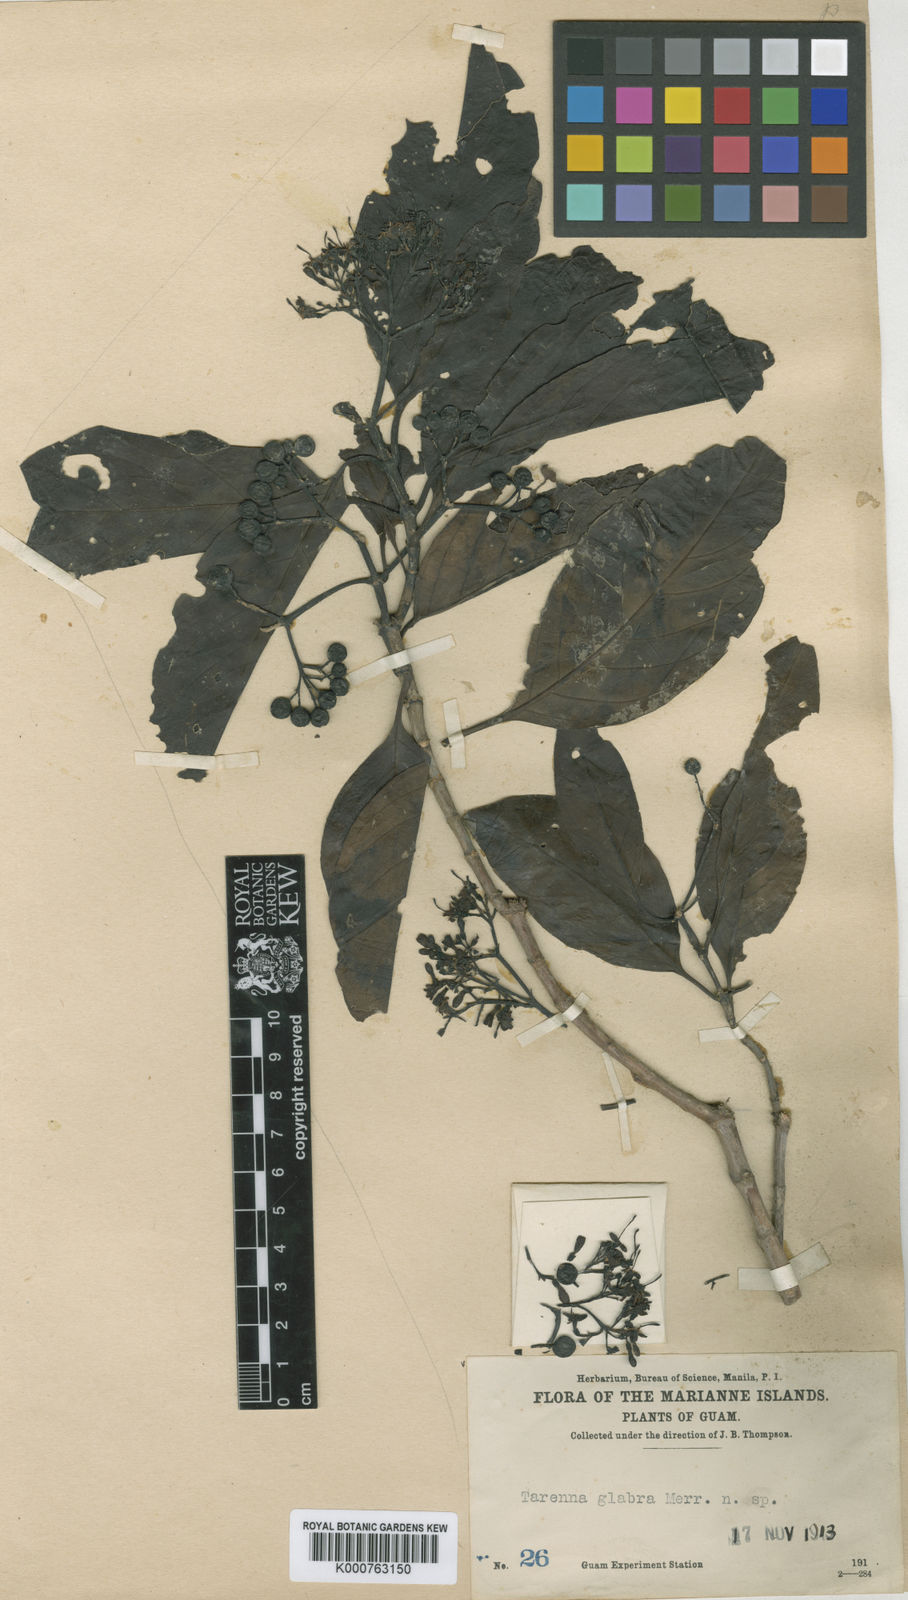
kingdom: Plantae
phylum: Tracheophyta
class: Magnoliopsida
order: Gentianales
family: Rubiaceae
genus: Tarenna
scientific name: Tarenna sambucina
